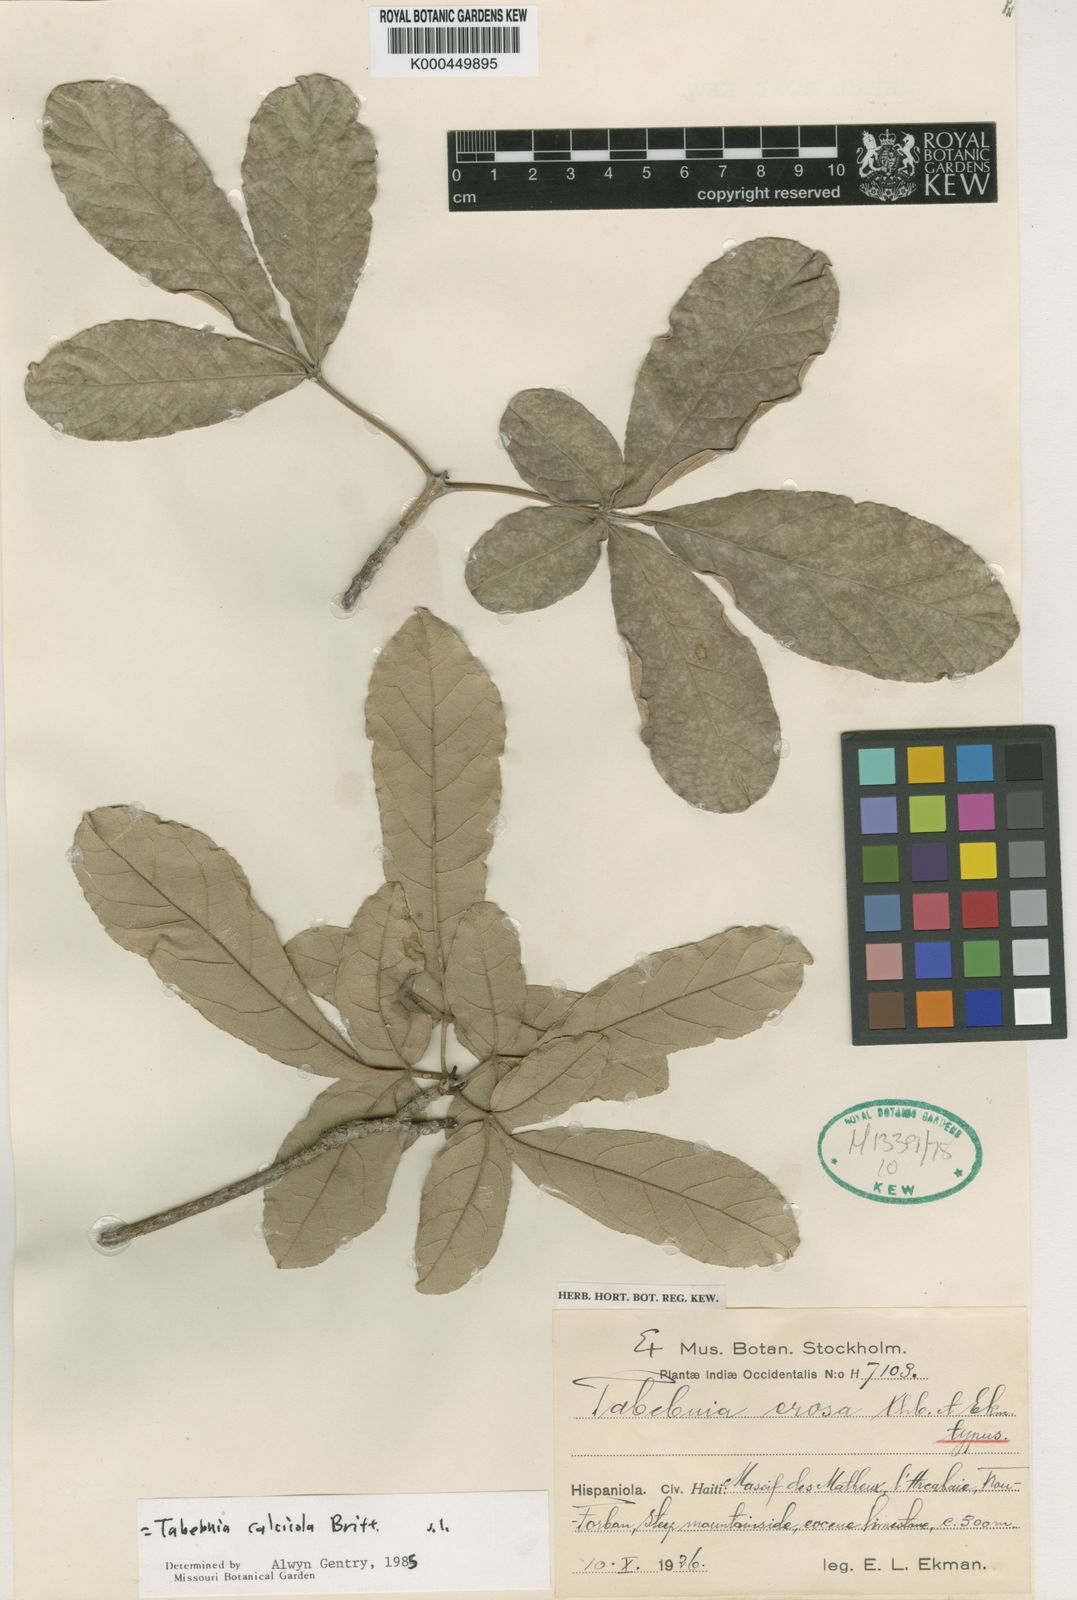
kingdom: Plantae
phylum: Tracheophyta
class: Magnoliopsida
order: Lamiales
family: Bignoniaceae
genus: Tabebuia
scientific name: Tabebuia calcicola
